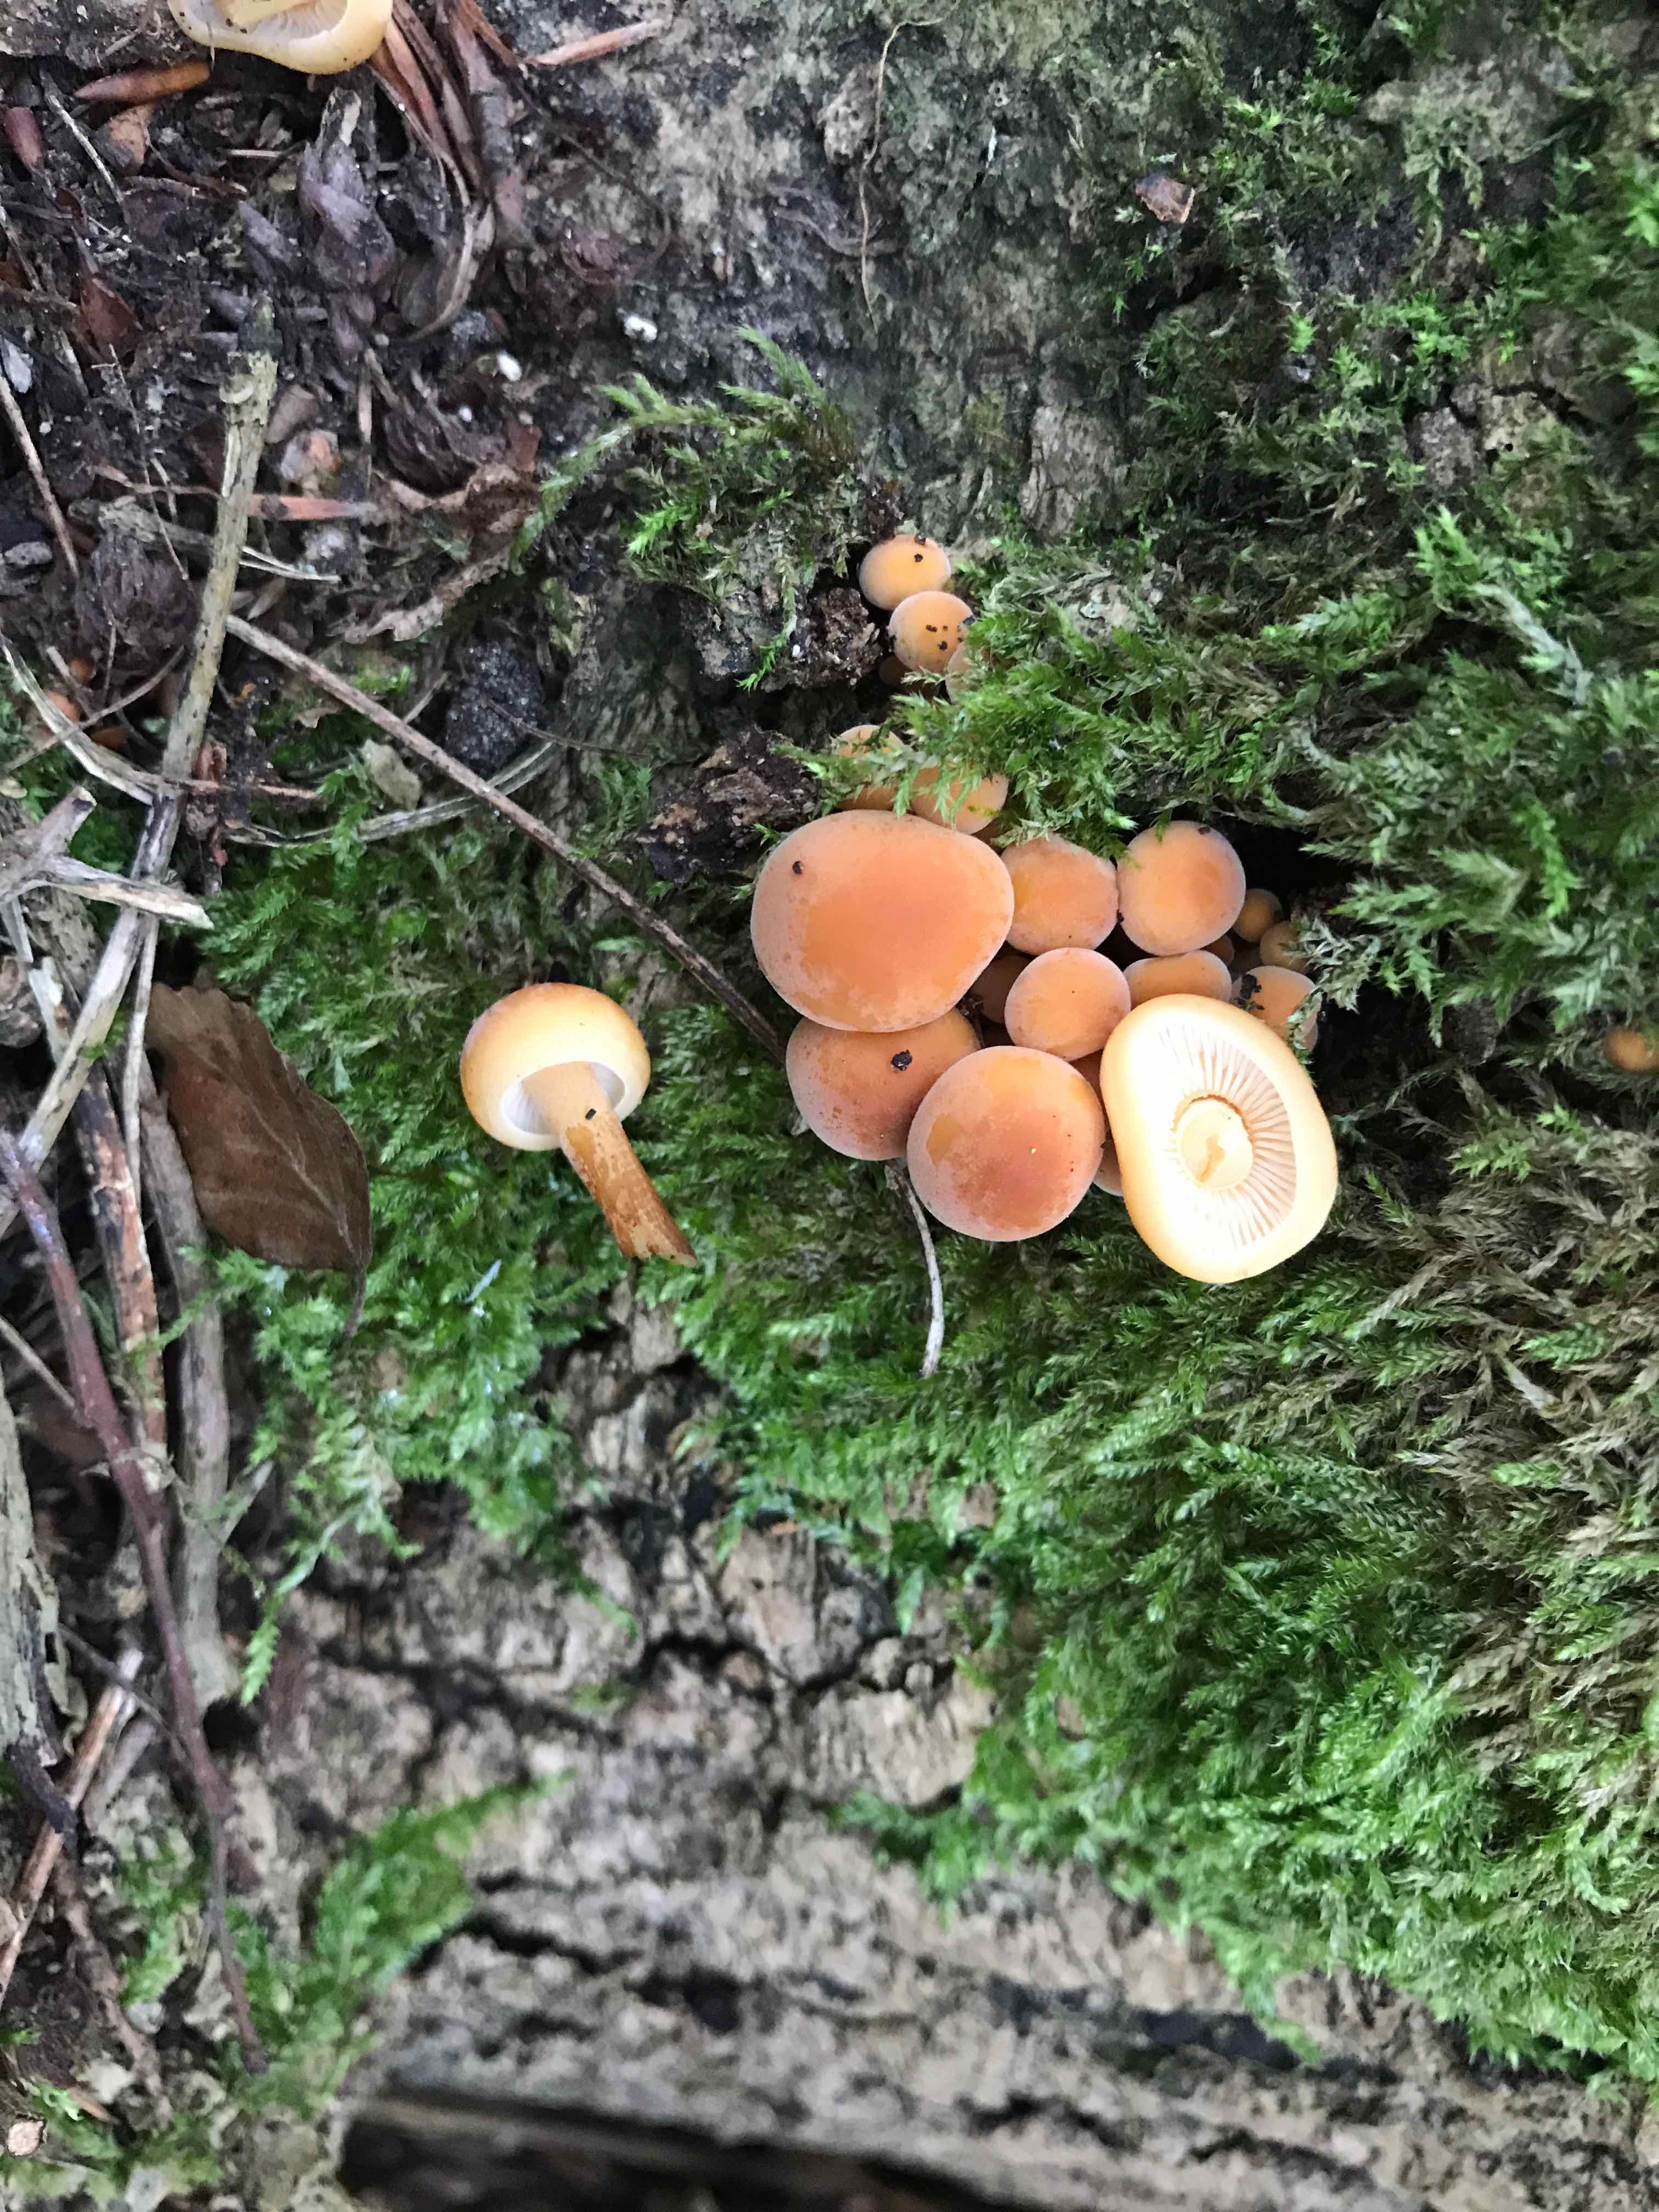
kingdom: Fungi
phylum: Basidiomycota
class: Agaricomycetes
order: Agaricales
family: Physalacriaceae
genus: Flammulina
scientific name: Flammulina
